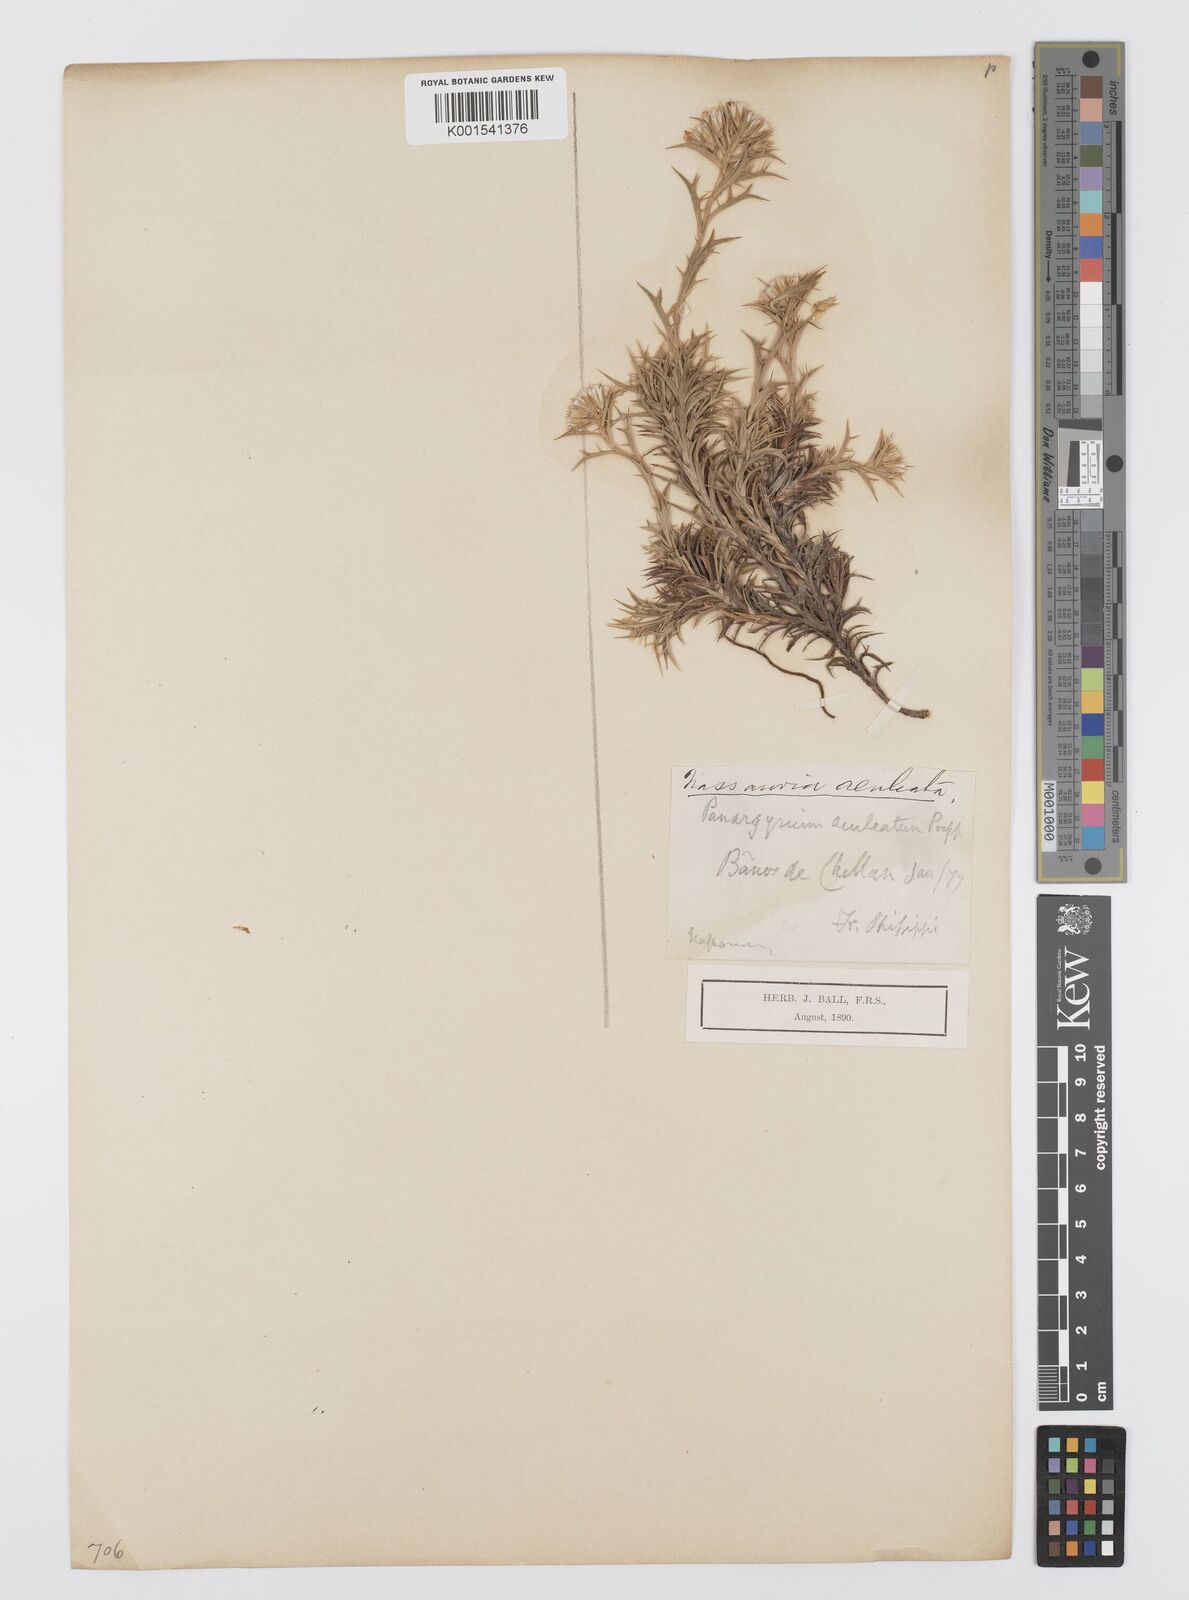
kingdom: Plantae
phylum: Tracheophyta
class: Magnoliopsida
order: Asterales
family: Asteraceae
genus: Nassauvia
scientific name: Nassauvia aculeata
